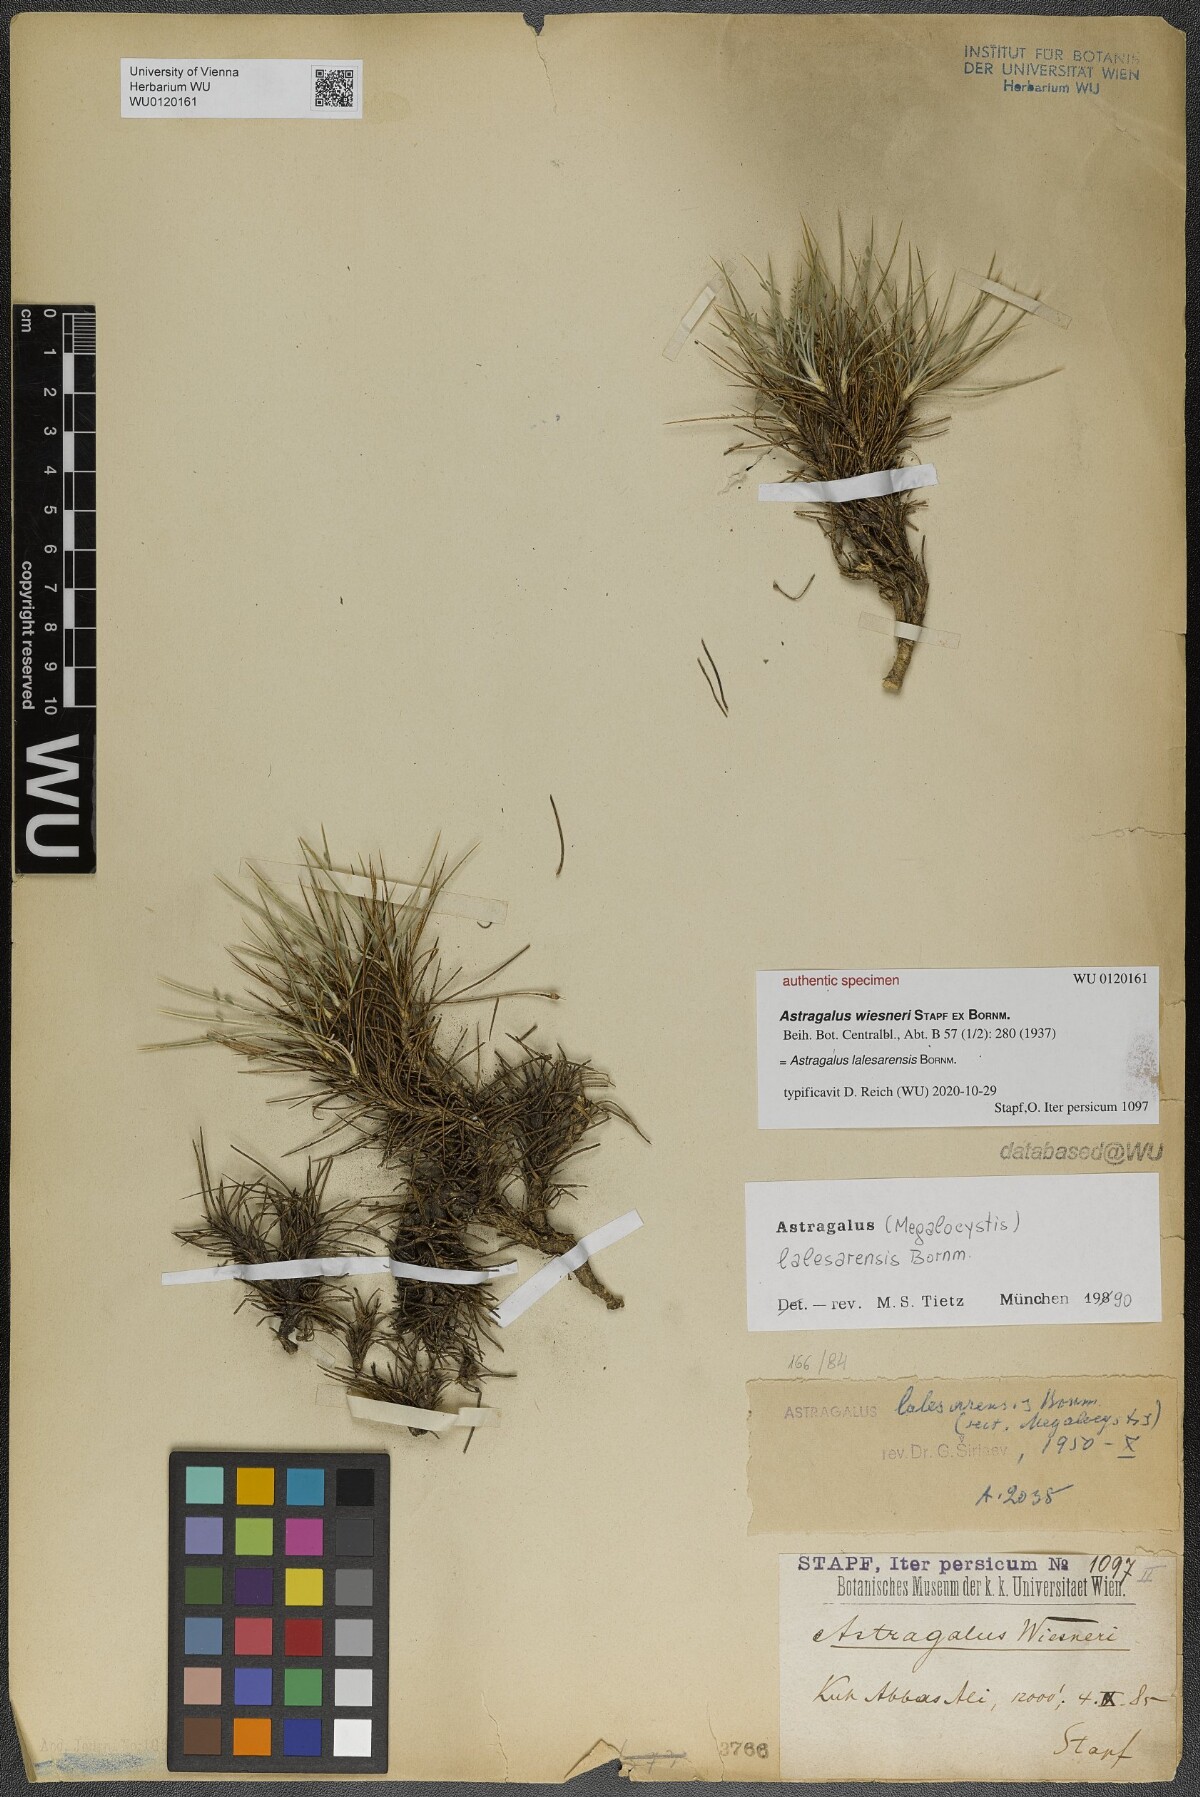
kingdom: Plantae
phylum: Tracheophyta
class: Magnoliopsida
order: Fabales
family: Fabaceae
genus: Astragalus
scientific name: Astragalus lalesarensis
